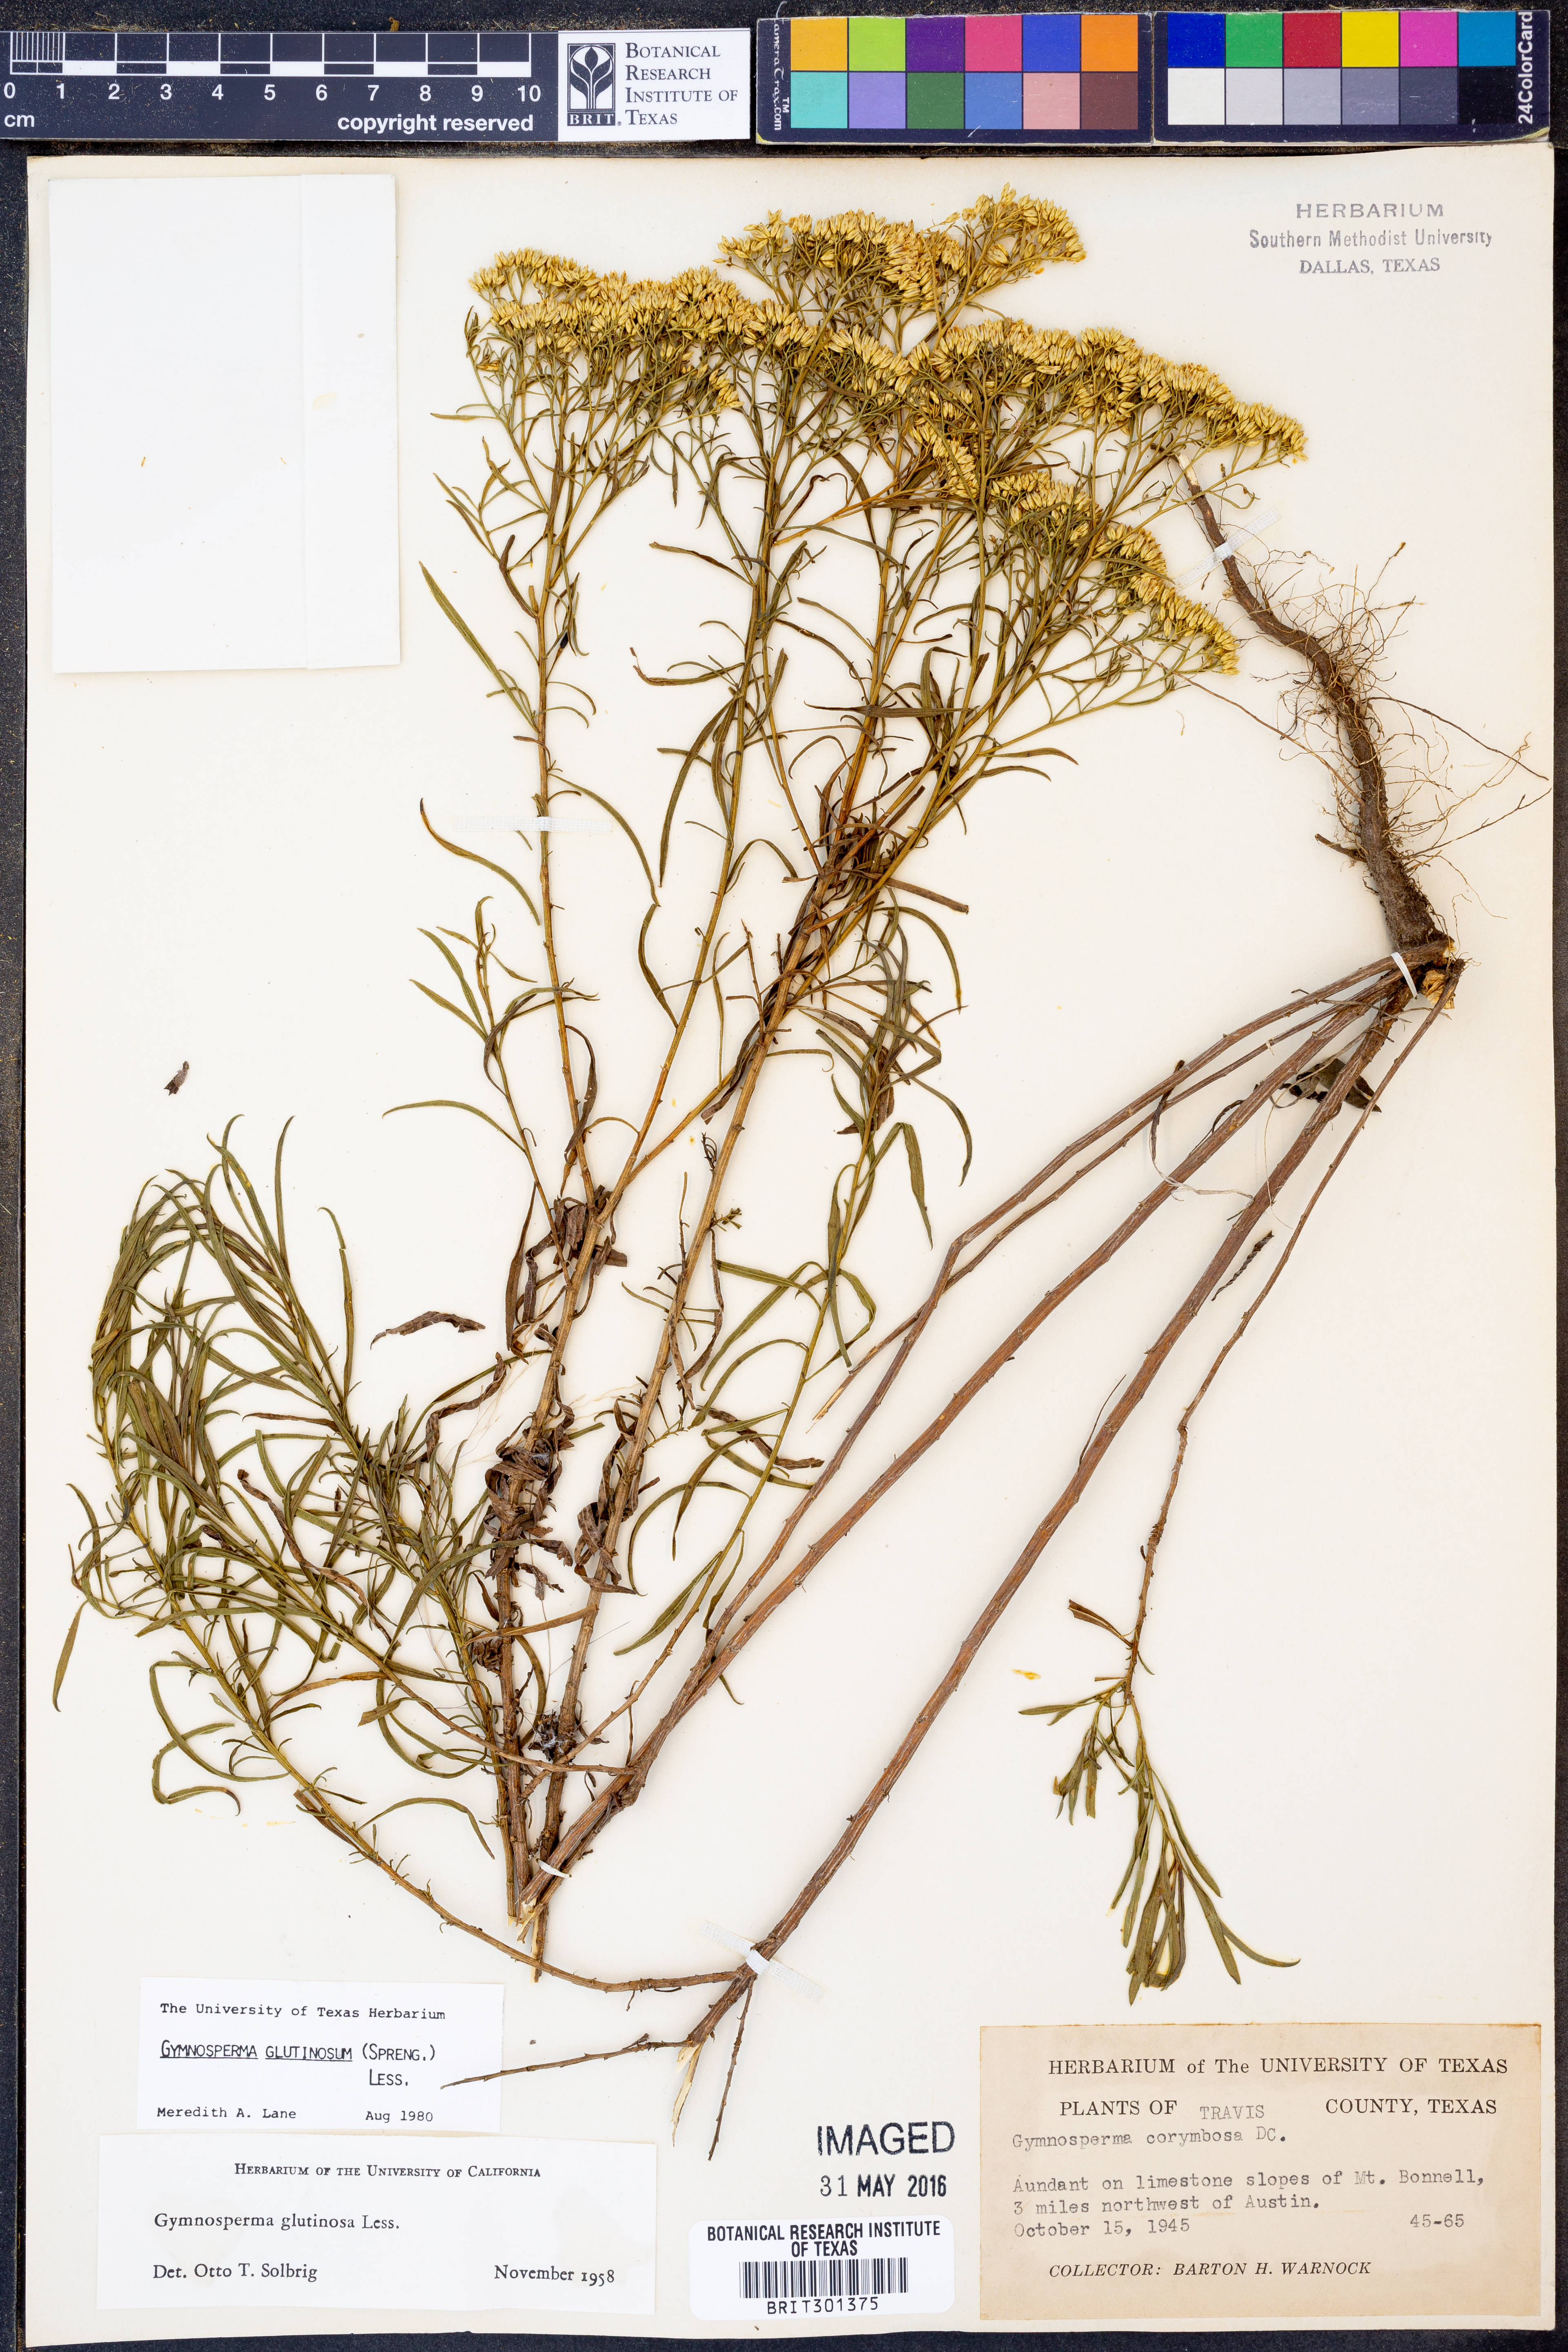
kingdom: Plantae
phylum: Tracheophyta
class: Magnoliopsida
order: Asterales
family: Asteraceae
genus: Gymnosperma
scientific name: Gymnosperma glutinosum
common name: Gumhead
